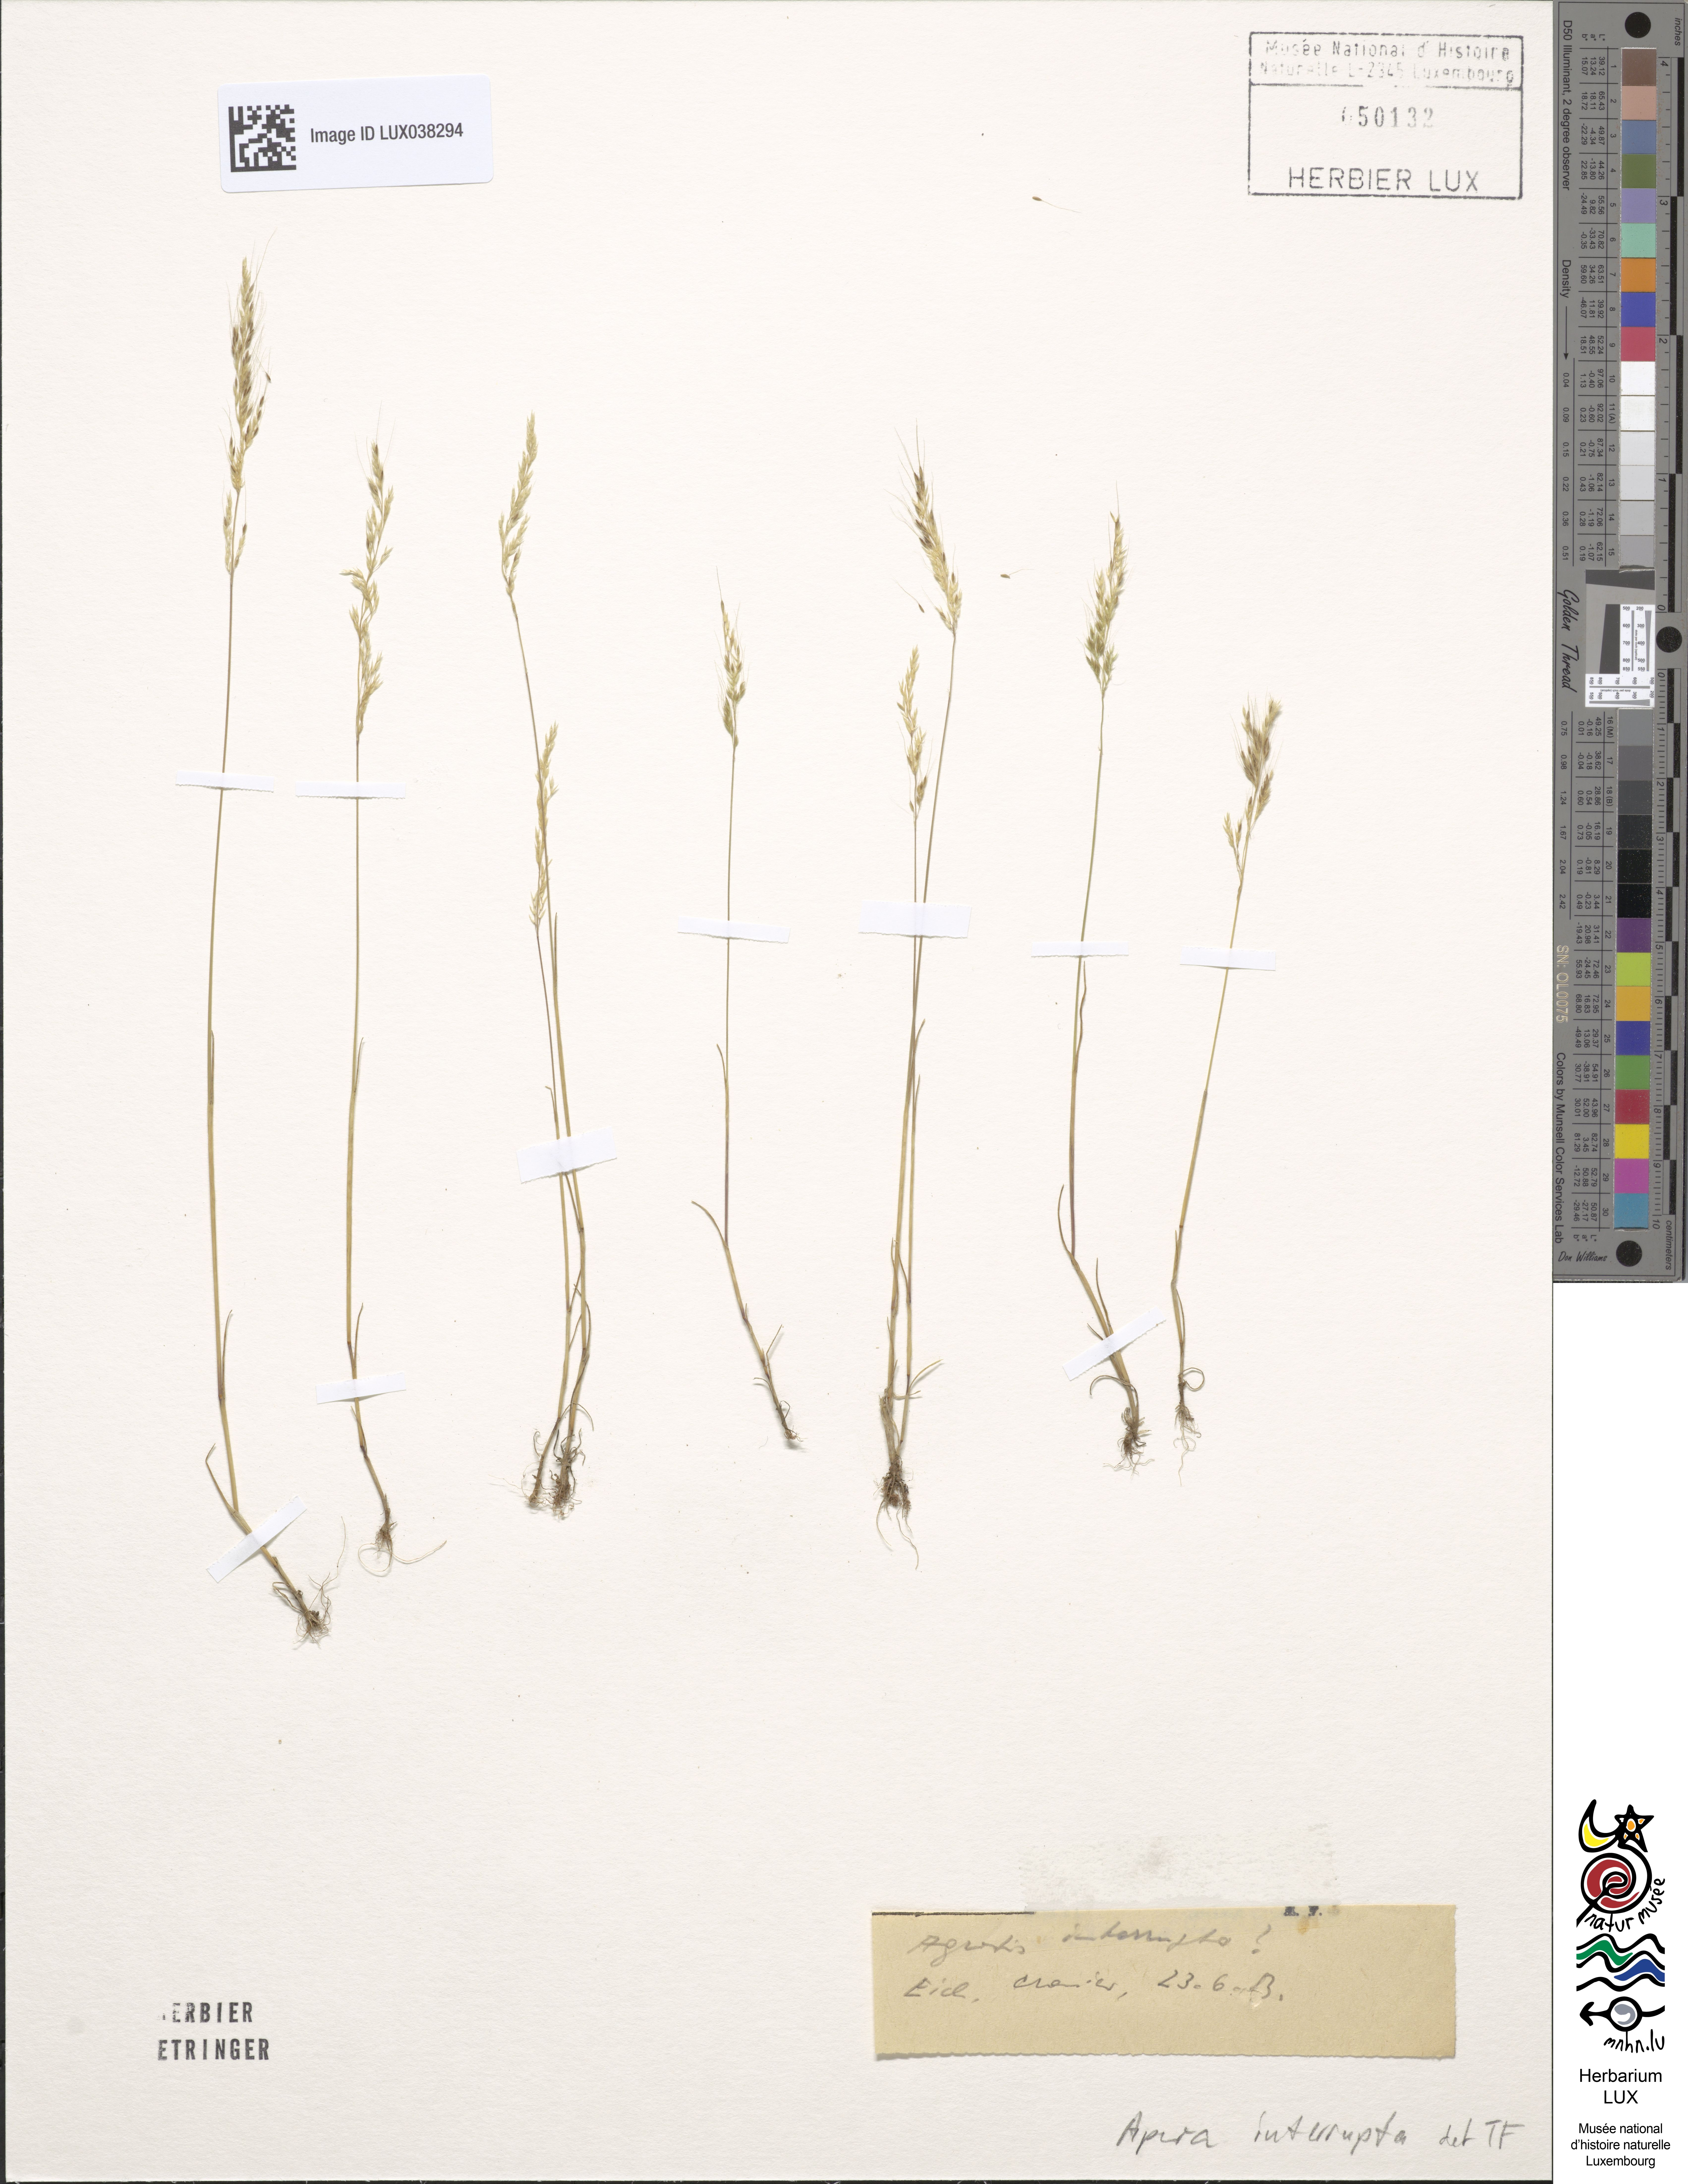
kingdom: Plantae
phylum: Tracheophyta
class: Liliopsida
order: Poales
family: Poaceae
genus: Apera
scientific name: Apera interrupta
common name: Dense silky-bent
